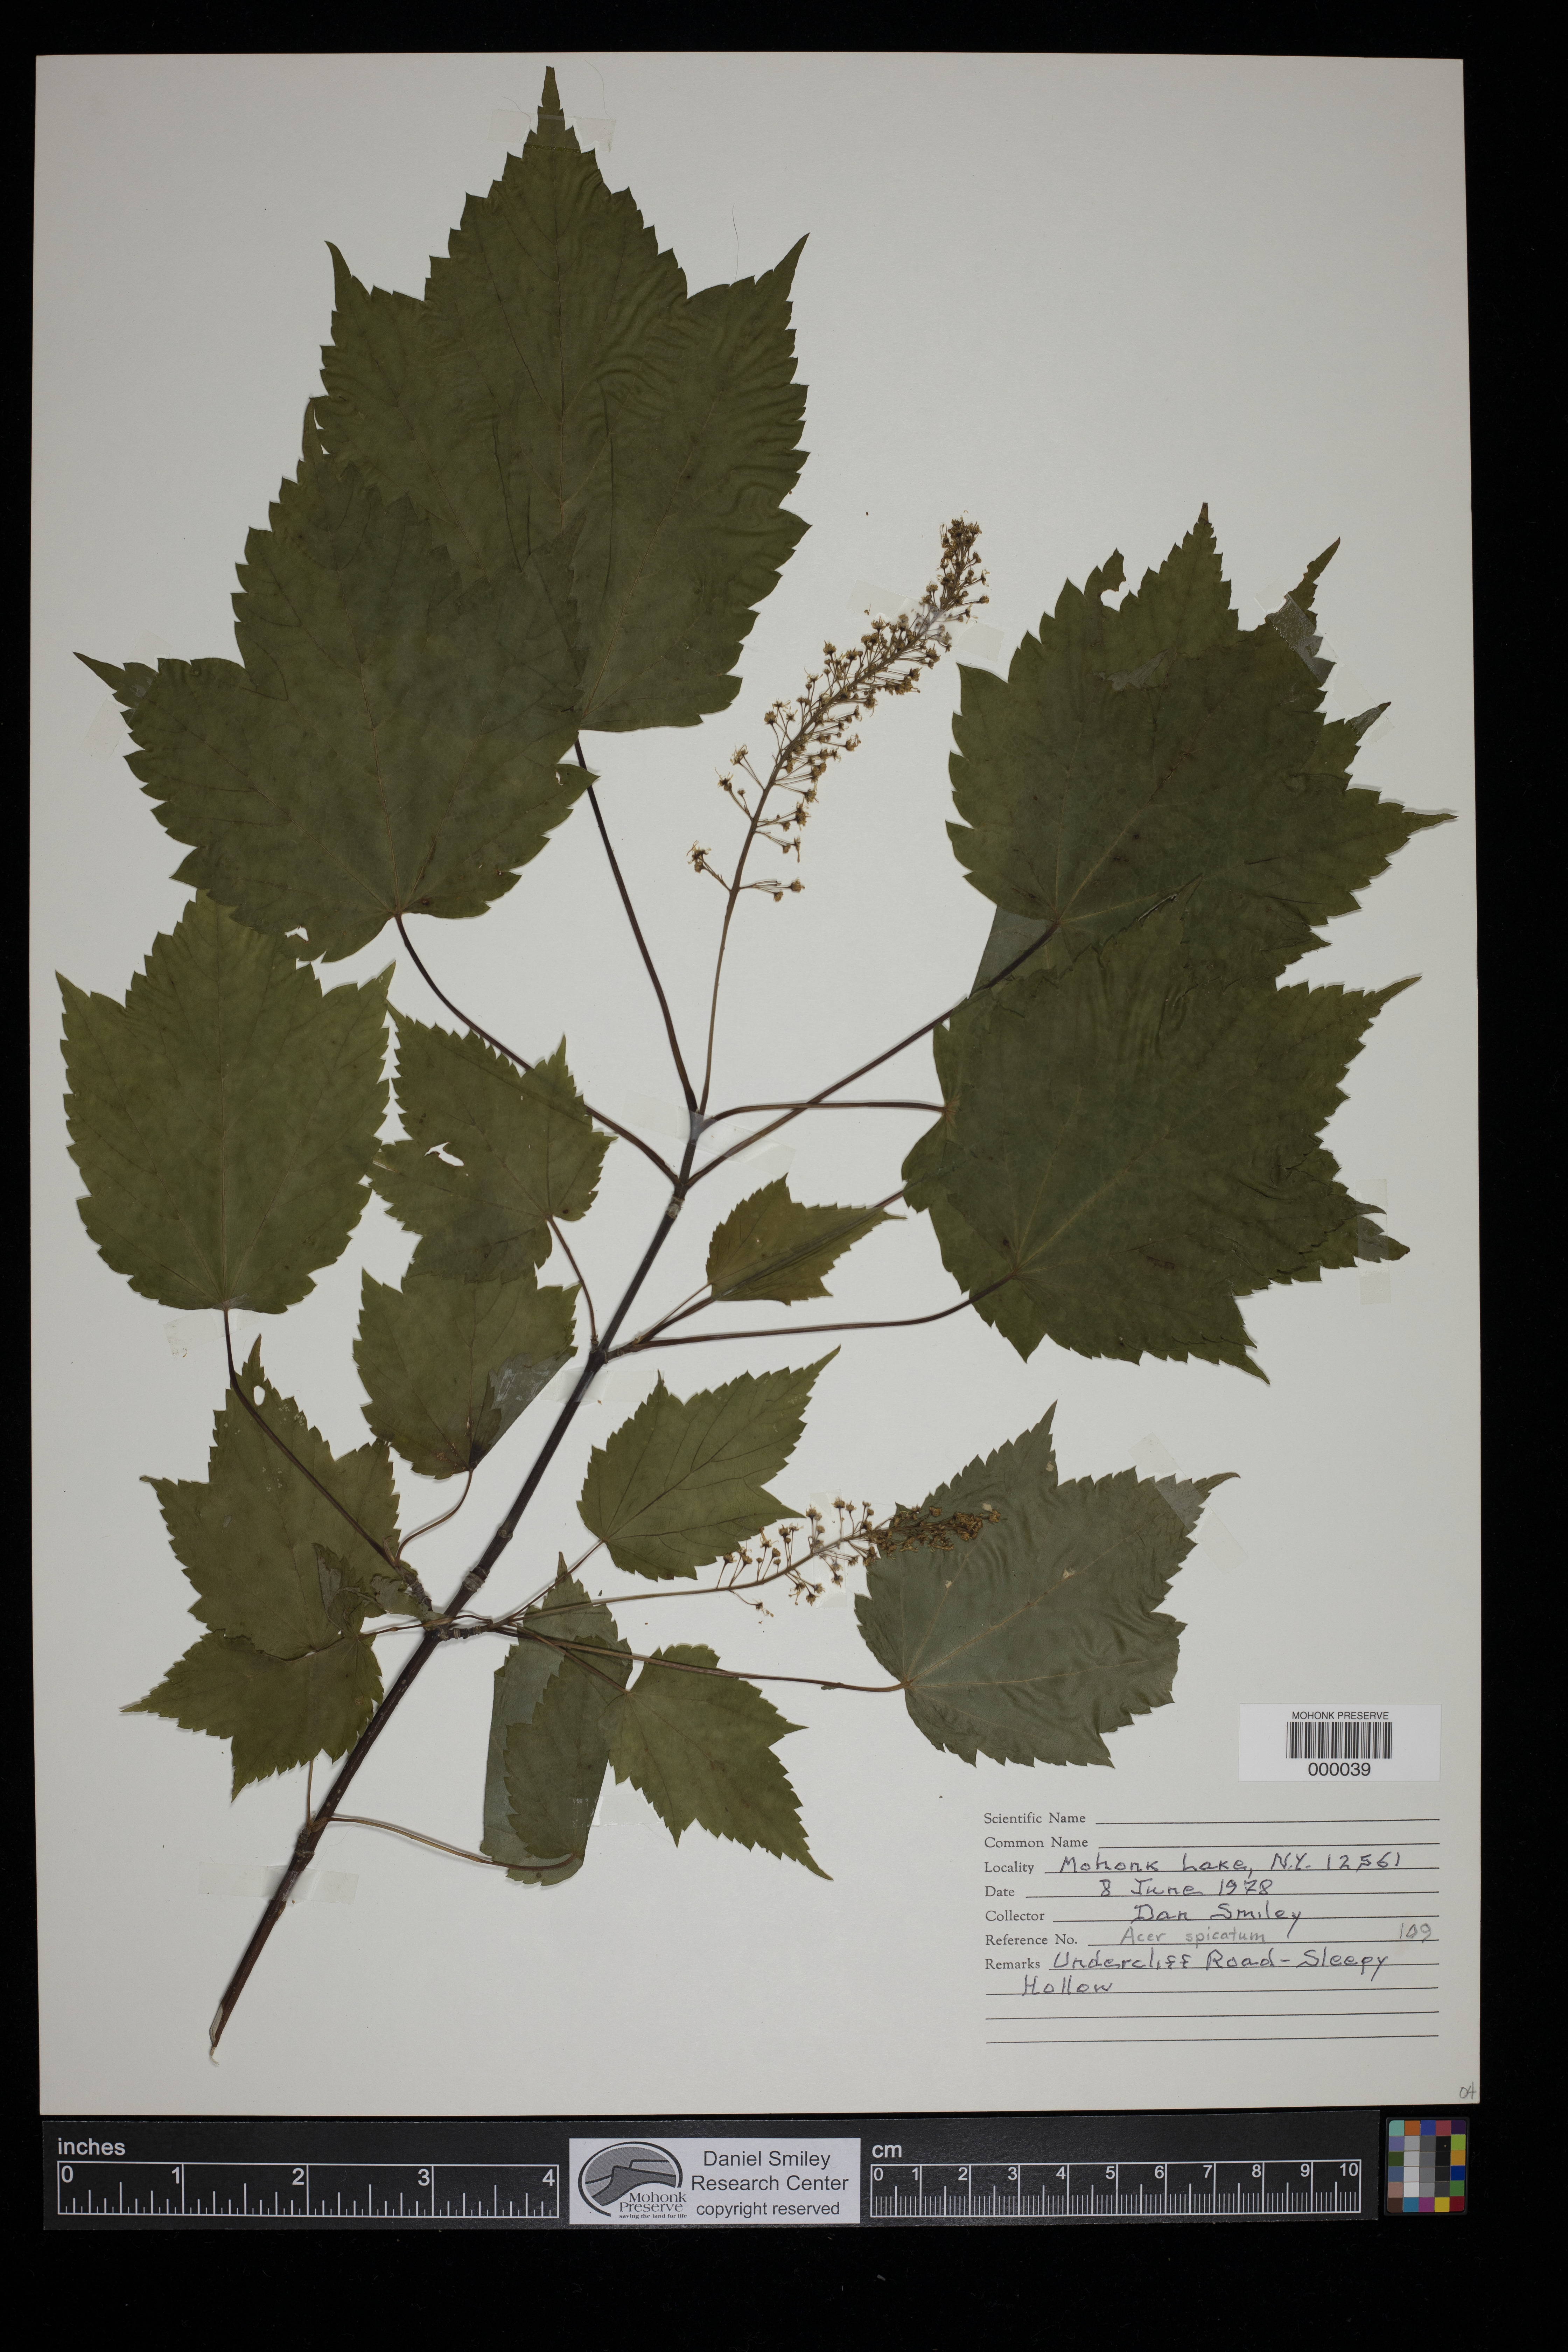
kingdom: Plantae
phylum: Tracheophyta
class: Magnoliopsida
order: Sapindales
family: Sapindaceae
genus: Acer
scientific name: Acer spicatum
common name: Mountain maple
